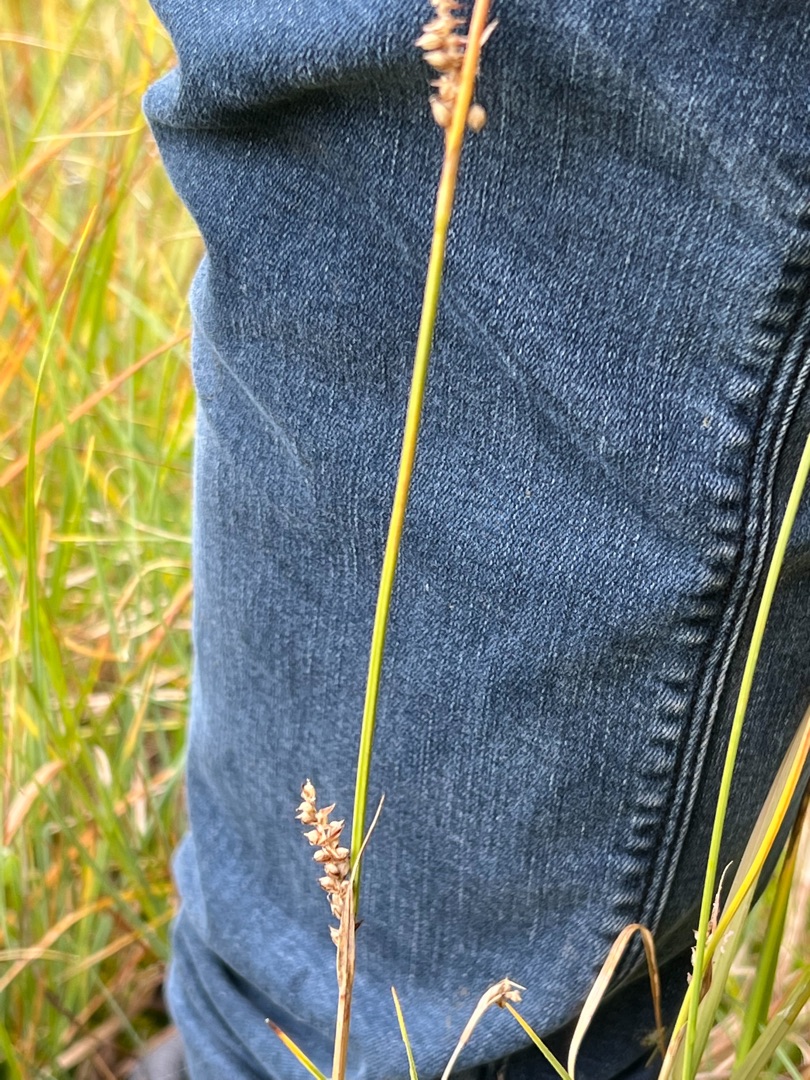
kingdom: Plantae
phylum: Tracheophyta
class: Liliopsida
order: Poales
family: Cyperaceae
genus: Carex
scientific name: Carex panicea
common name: Hirse-star
